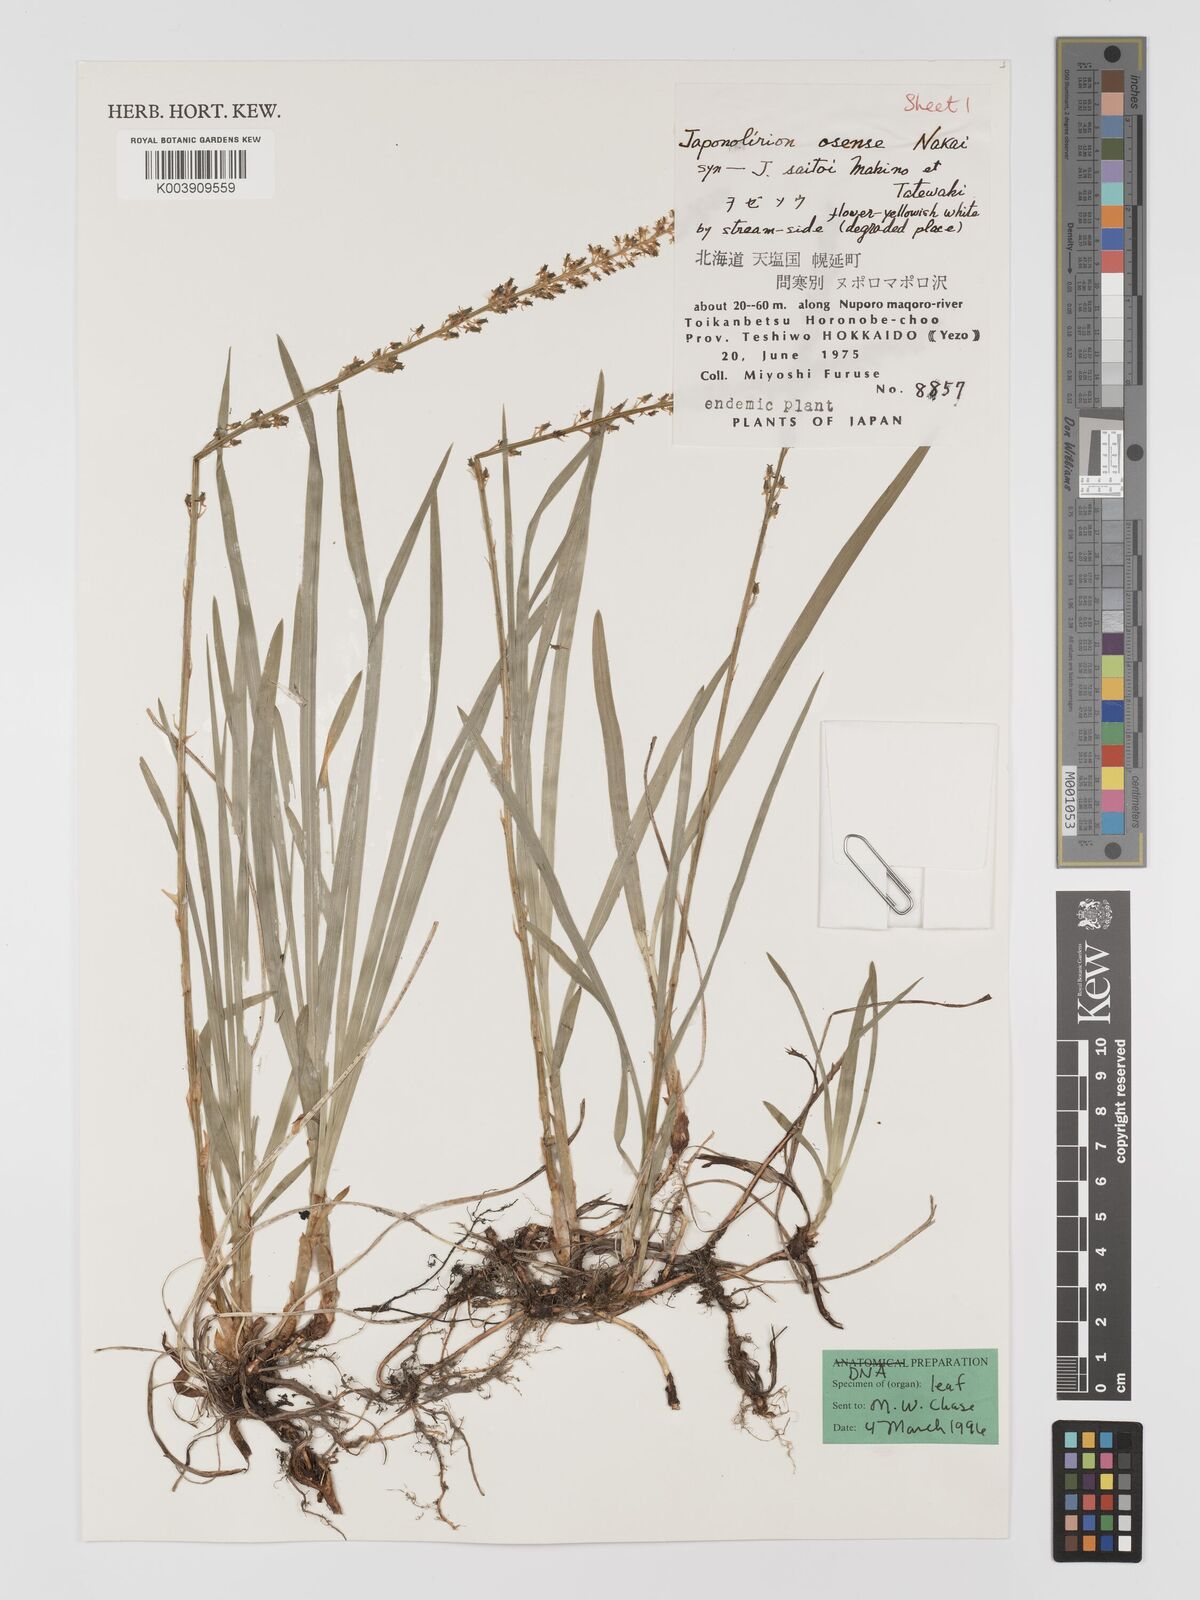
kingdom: Plantae
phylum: Tracheophyta
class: Liliopsida
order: Petrosaviales
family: Petrosaviaceae
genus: Japonolirion
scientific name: Japonolirion osense
